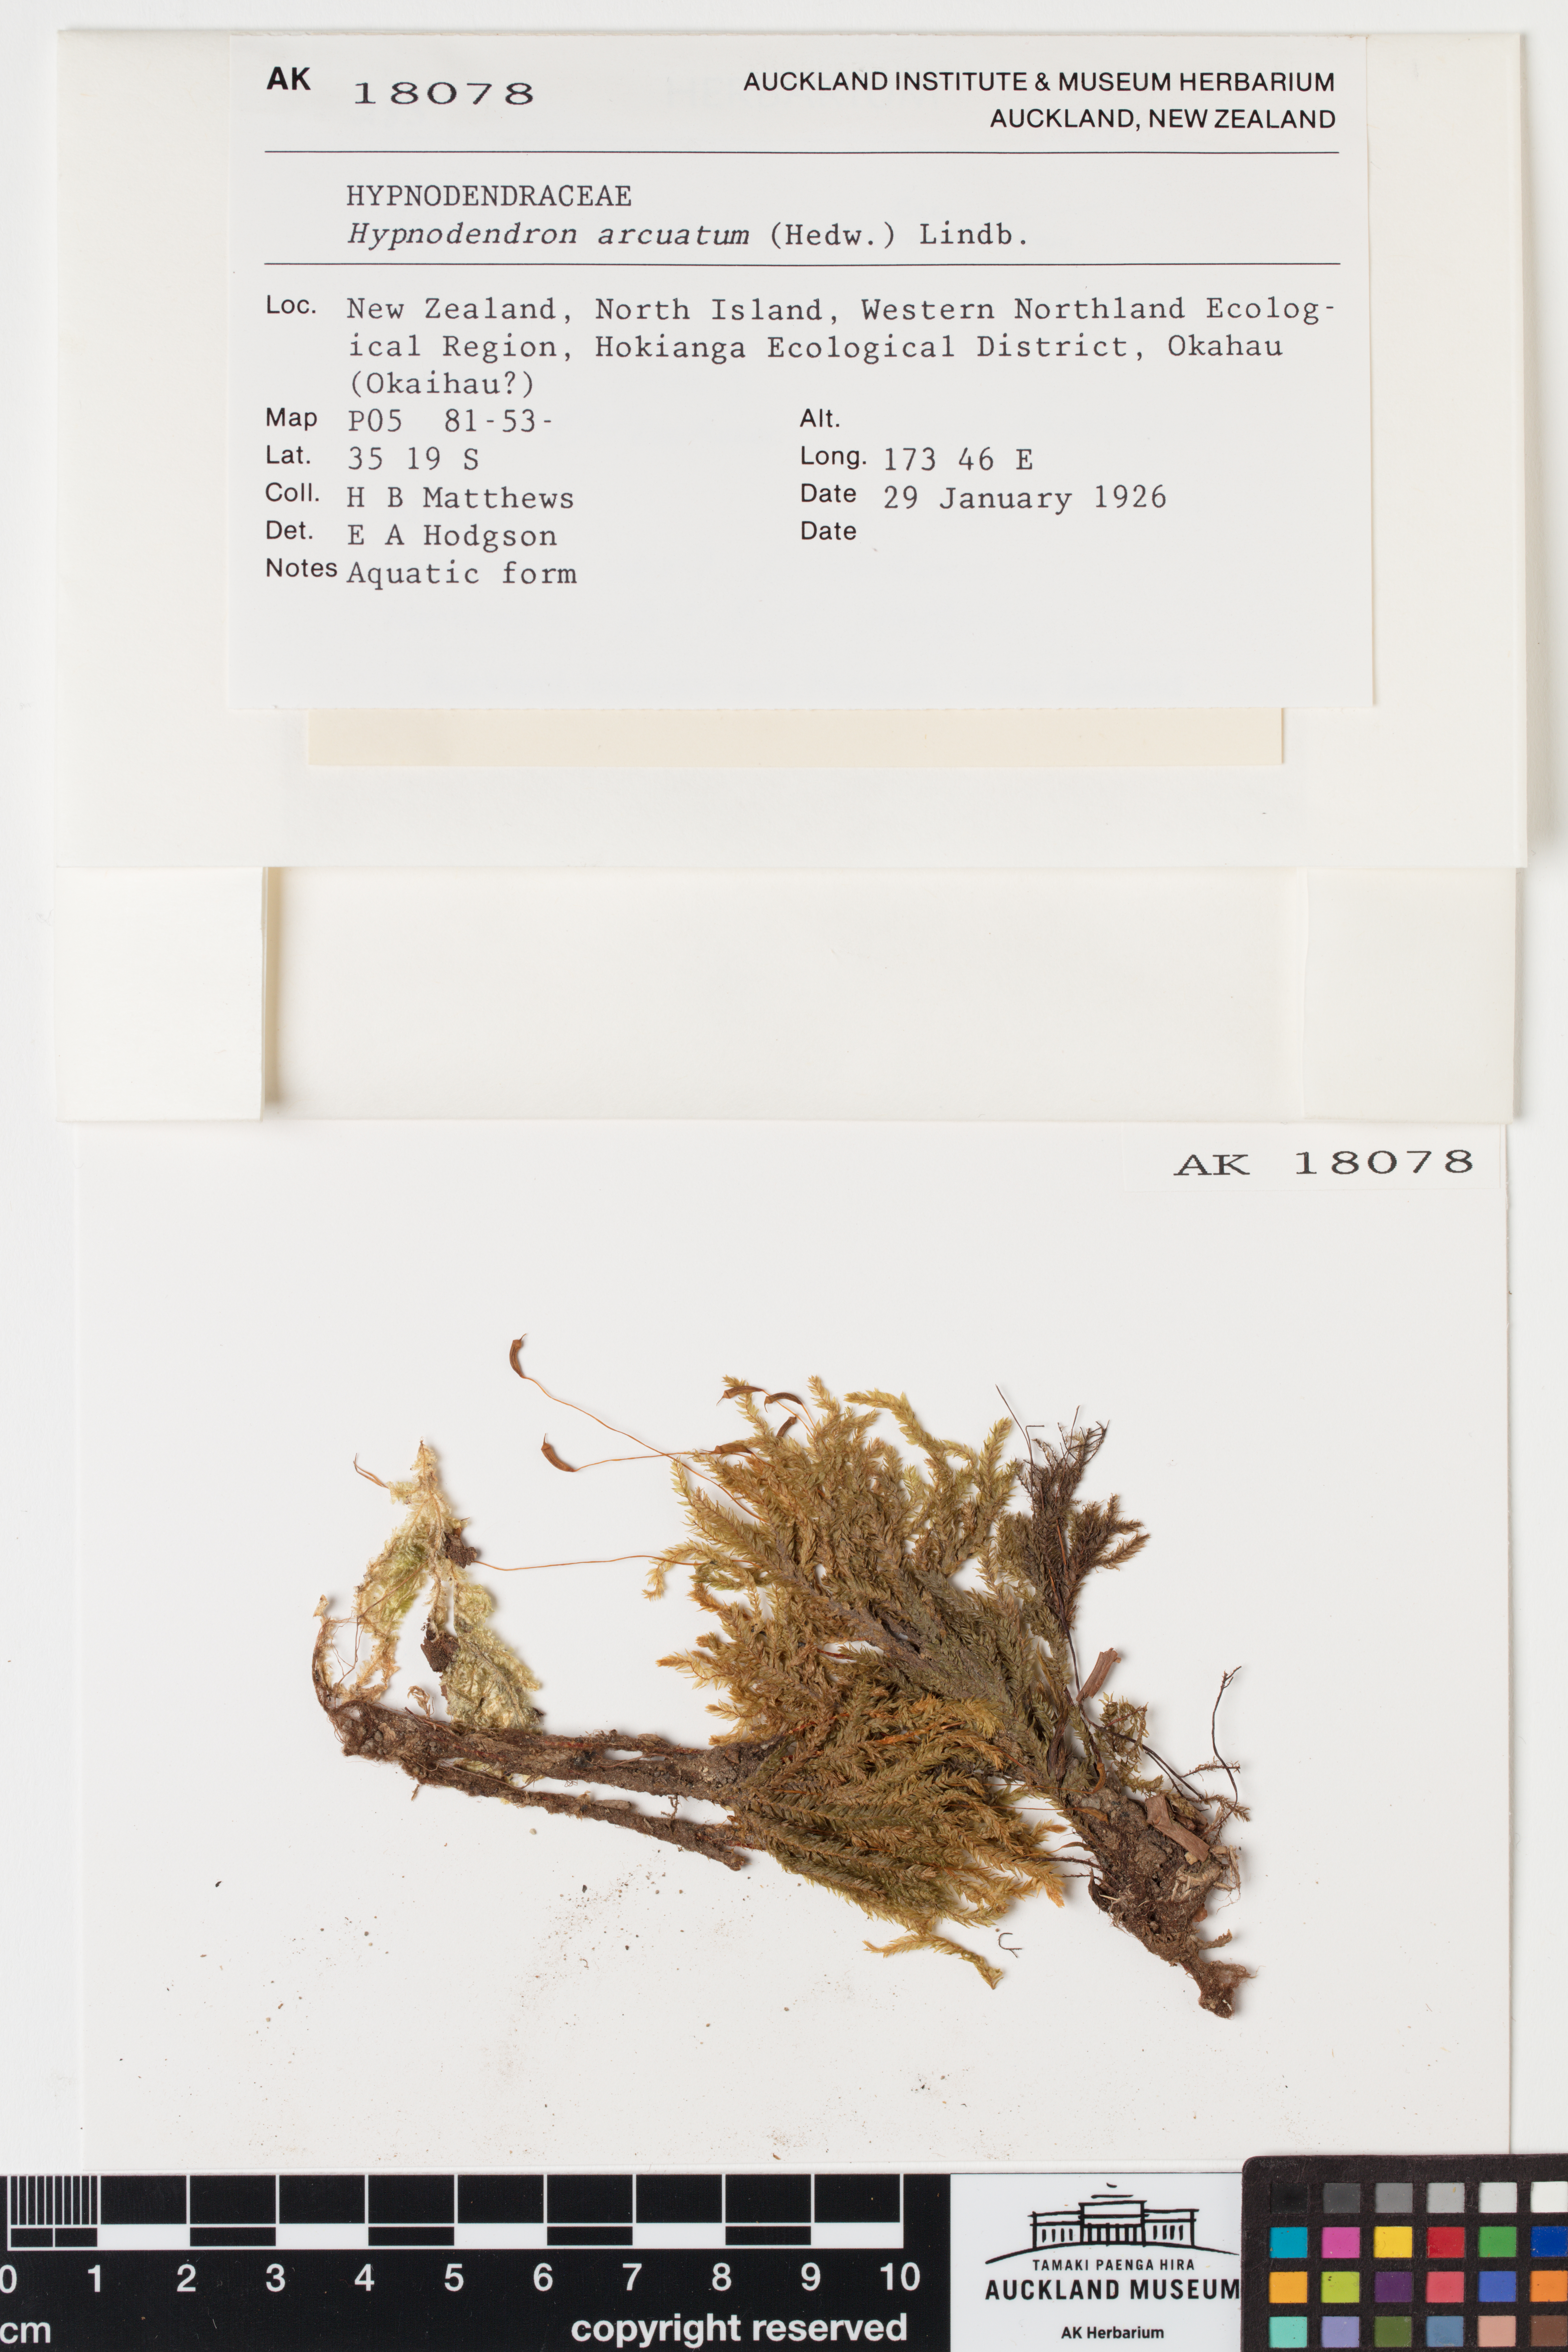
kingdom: Plantae
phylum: Bryophyta
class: Bryopsida
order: Hypnodendrales
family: Spiridentaceae
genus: Hypnodendron
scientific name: Hypnodendron arcuatum
